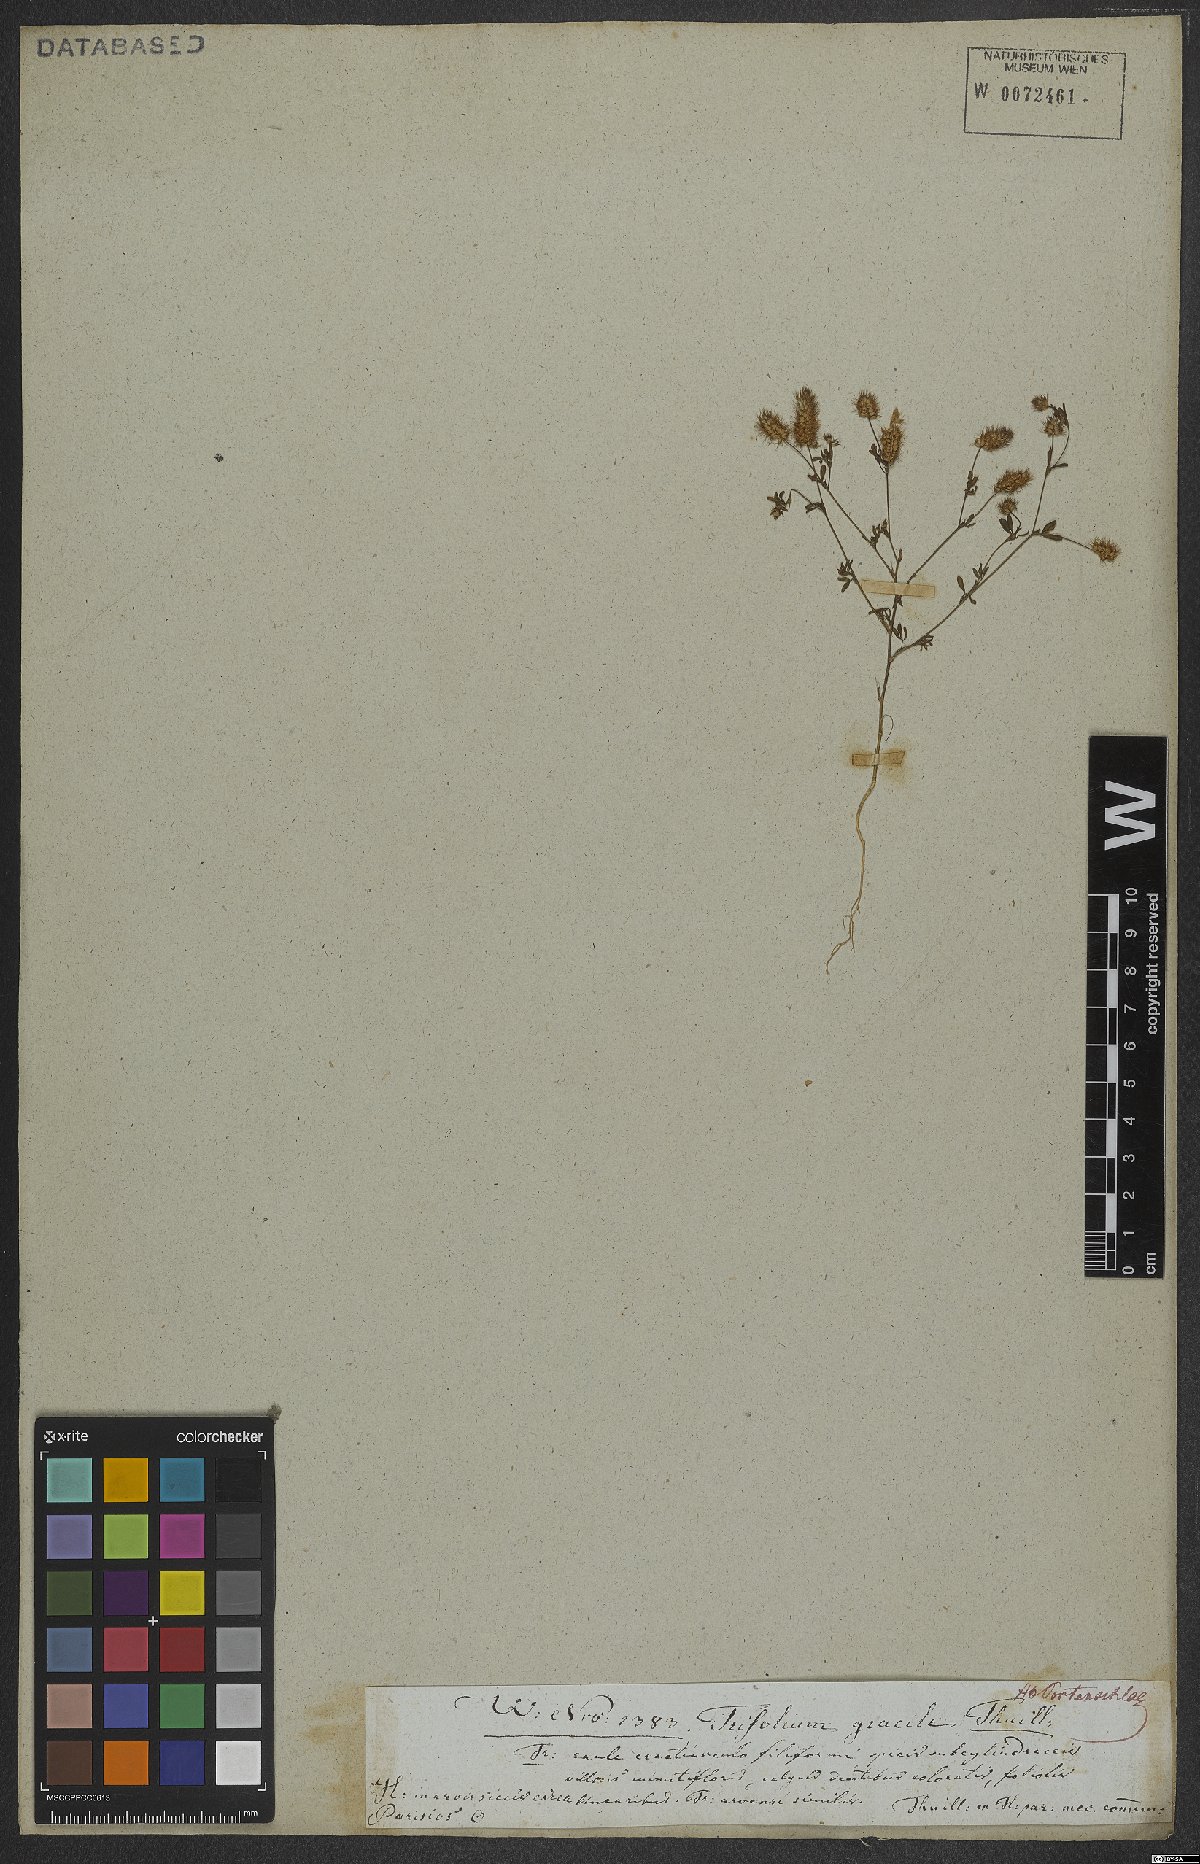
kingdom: Plantae
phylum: Tracheophyta
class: Magnoliopsida
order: Fabales
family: Fabaceae
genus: Trifolium
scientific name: Trifolium arvense
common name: Hare's-foot clover
